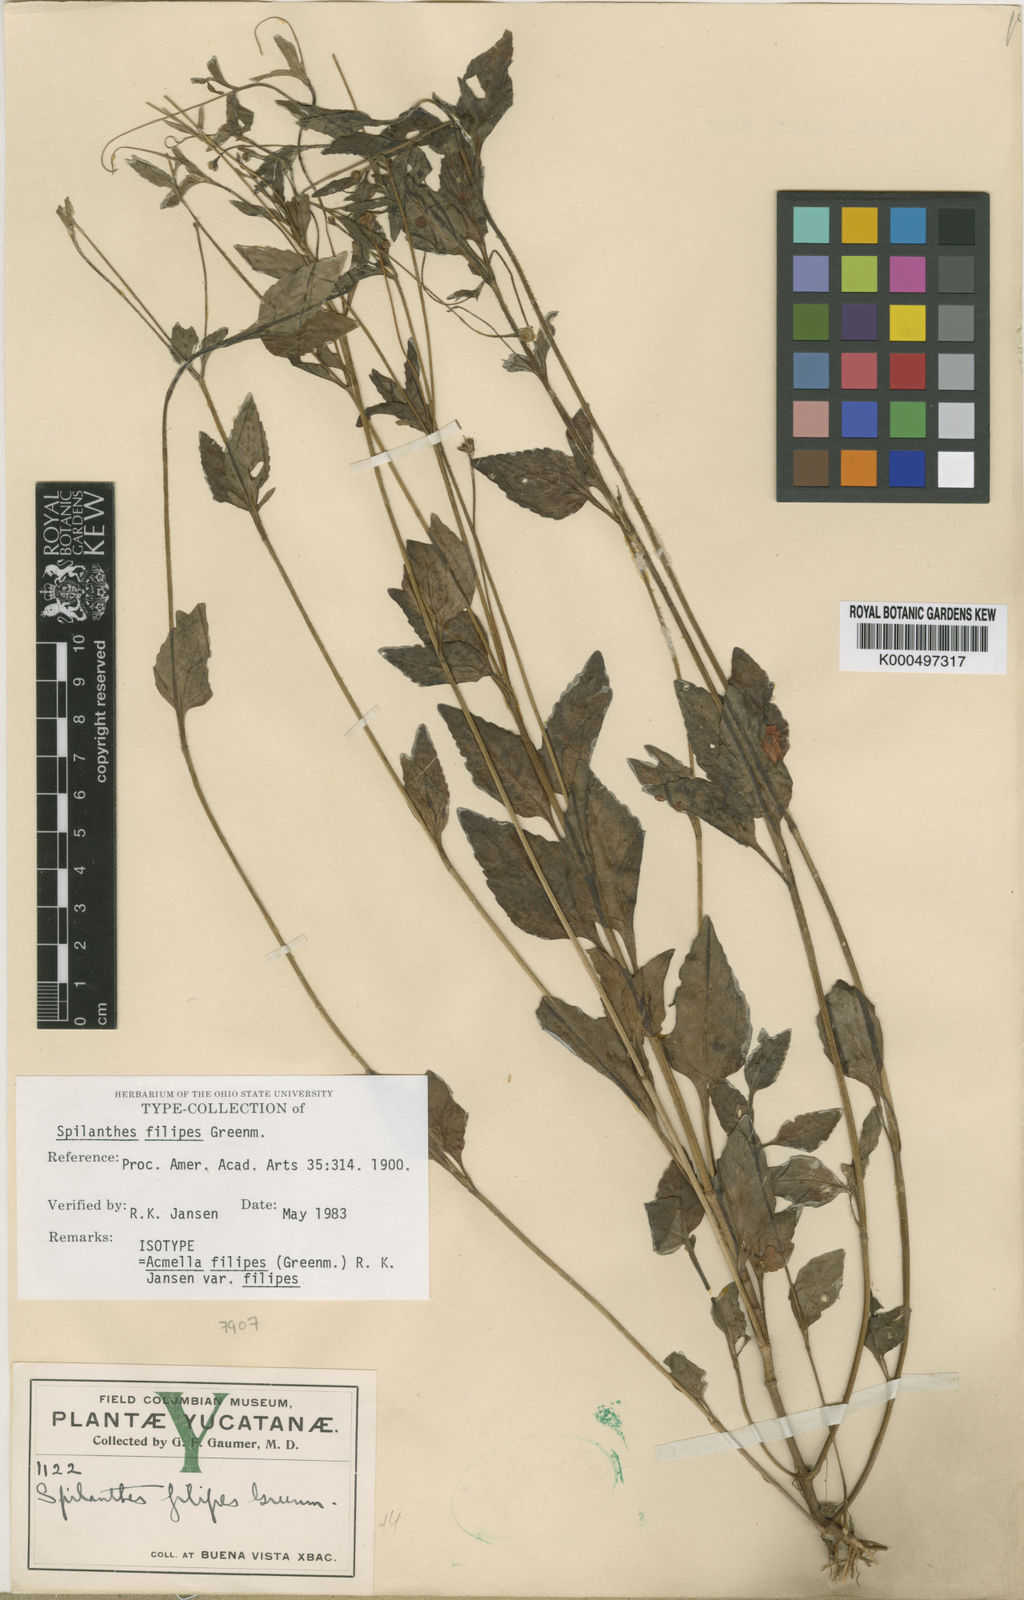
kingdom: Plantae
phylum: Tracheophyta
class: Magnoliopsida
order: Asterales
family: Asteraceae
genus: Acmella
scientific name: Acmella filipes
